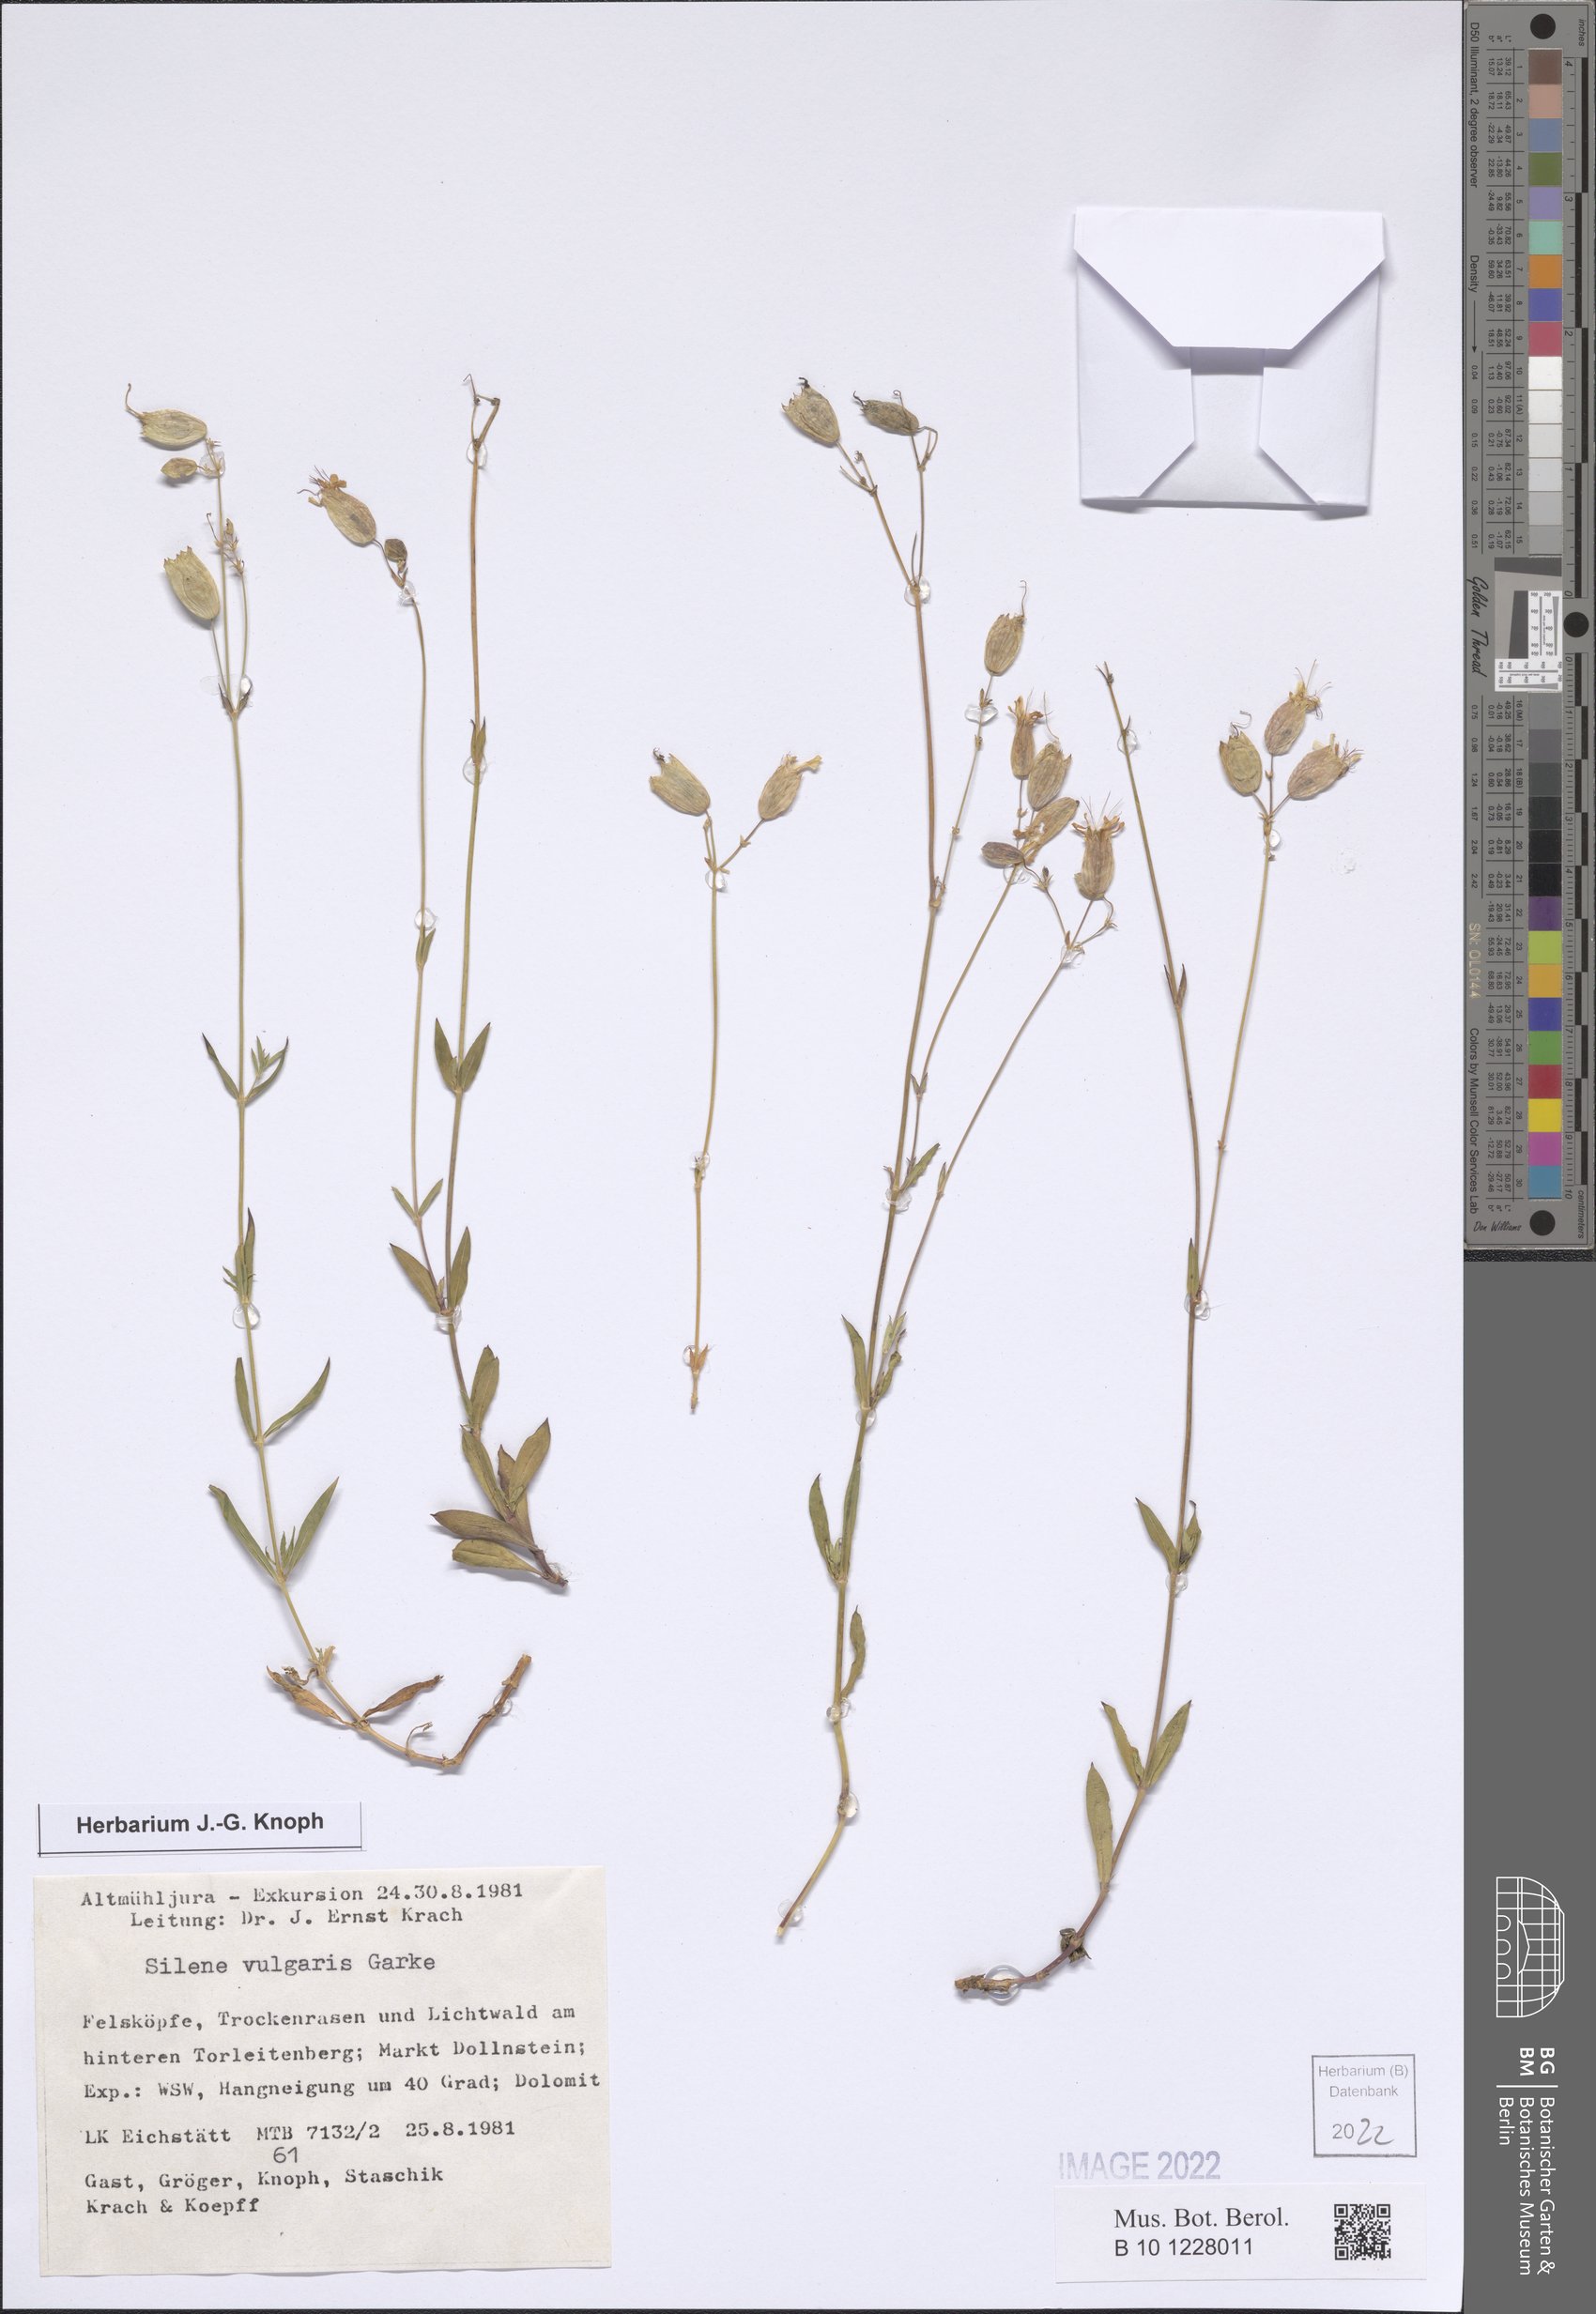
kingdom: Plantae
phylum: Tracheophyta
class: Magnoliopsida
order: Caryophyllales
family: Caryophyllaceae
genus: Silene
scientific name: Silene vulgaris
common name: Bladder campion
